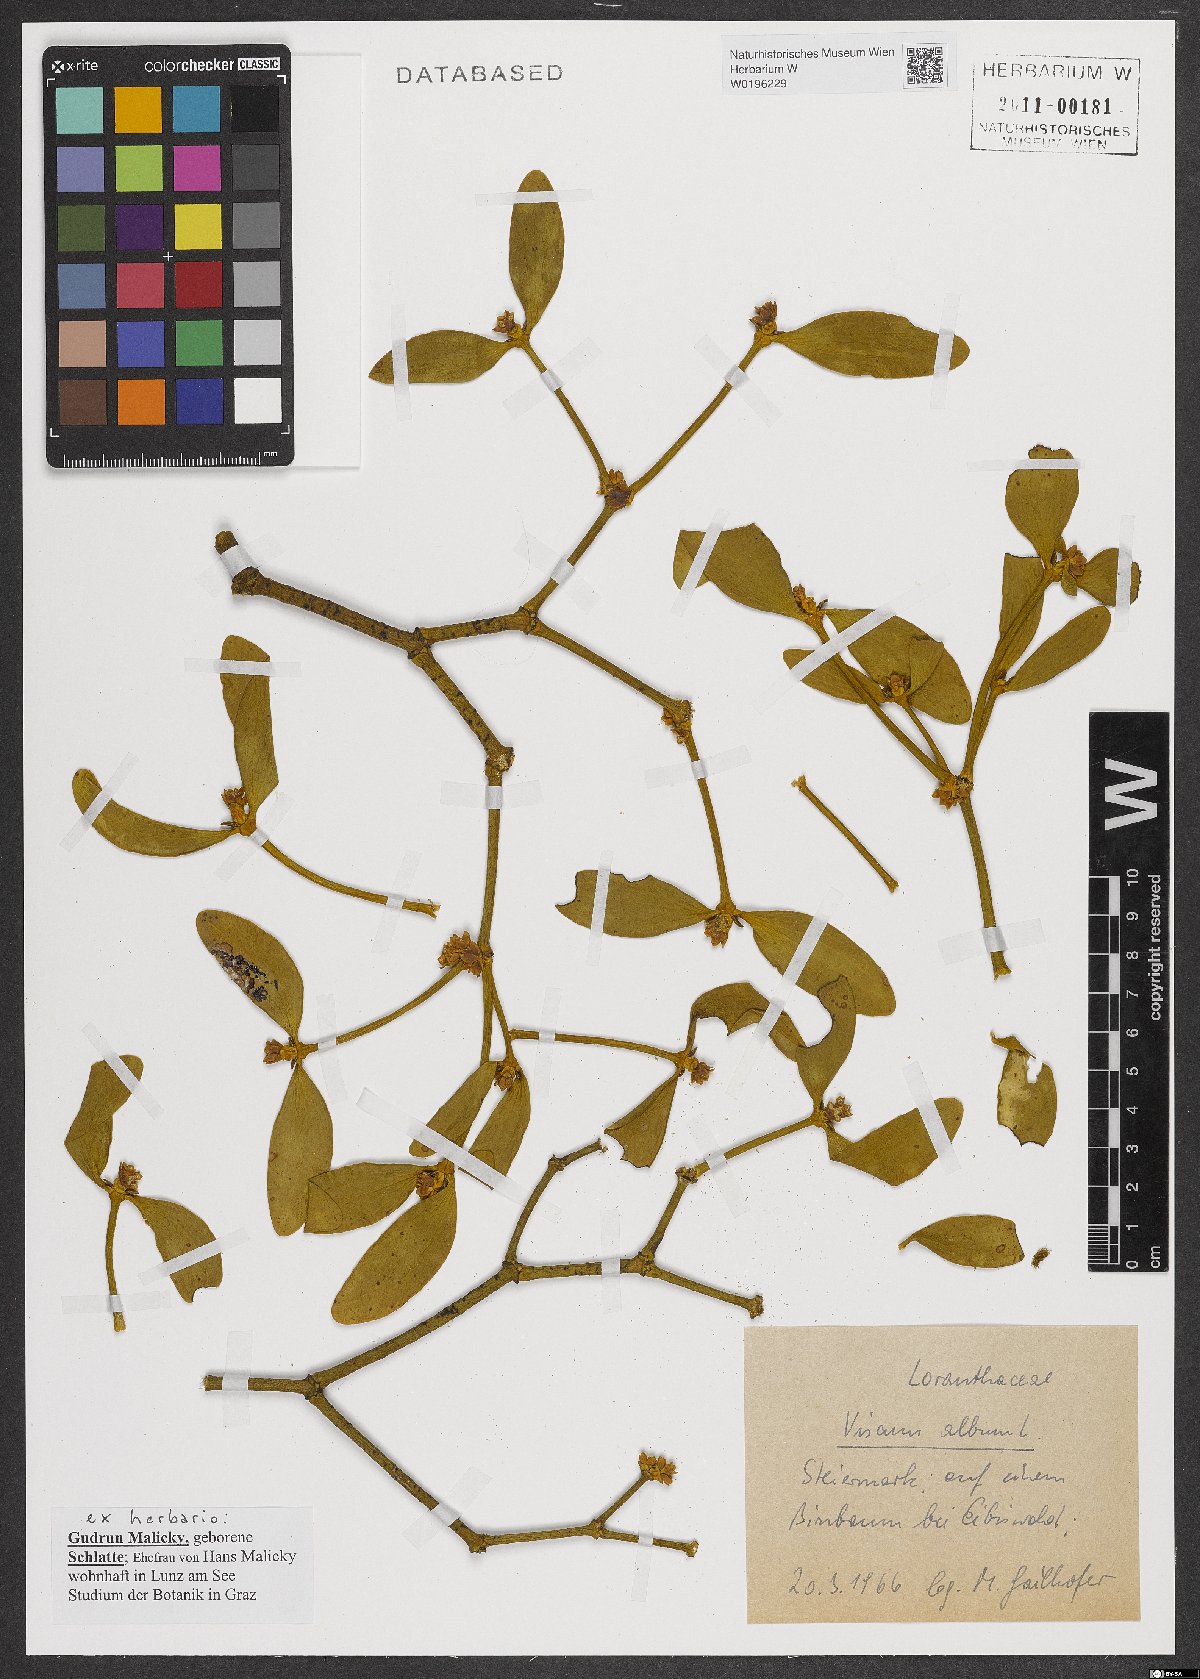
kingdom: Plantae
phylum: Tracheophyta
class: Magnoliopsida
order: Santalales
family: Viscaceae
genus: Viscum
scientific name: Viscum album
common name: Mistletoe
